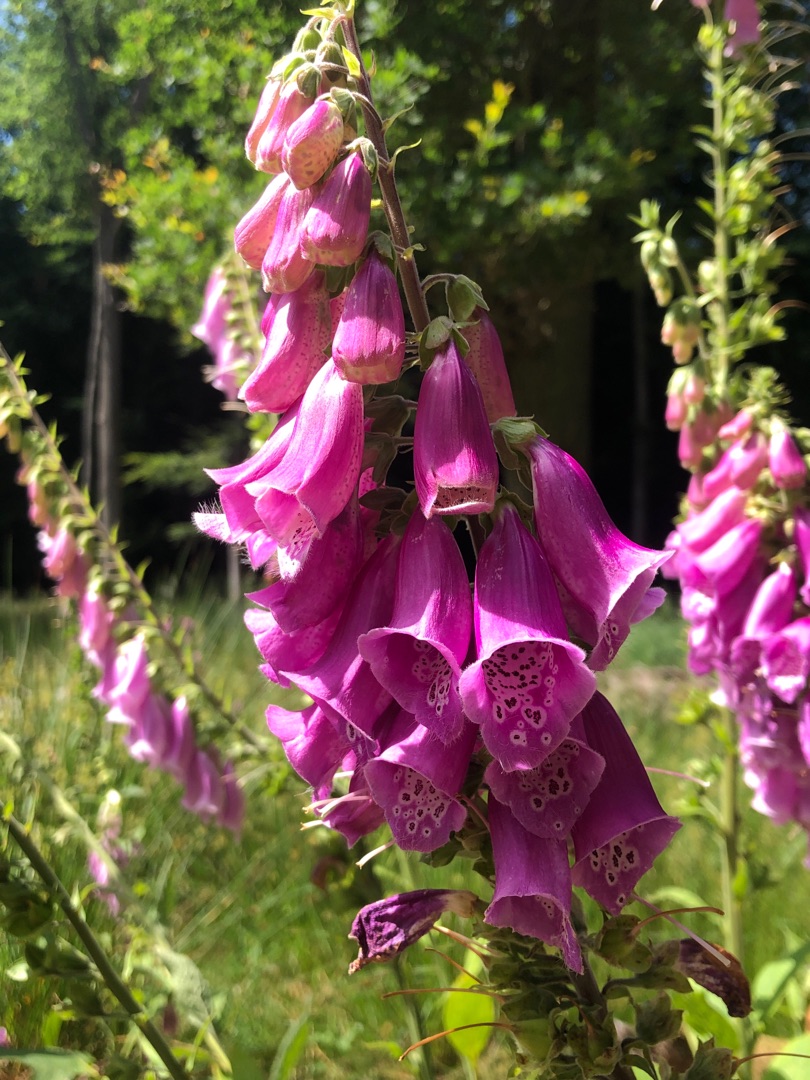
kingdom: Plantae
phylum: Tracheophyta
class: Magnoliopsida
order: Lamiales
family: Plantaginaceae
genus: Digitalis
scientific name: Digitalis purpurea
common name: Almindelig fingerbøl
